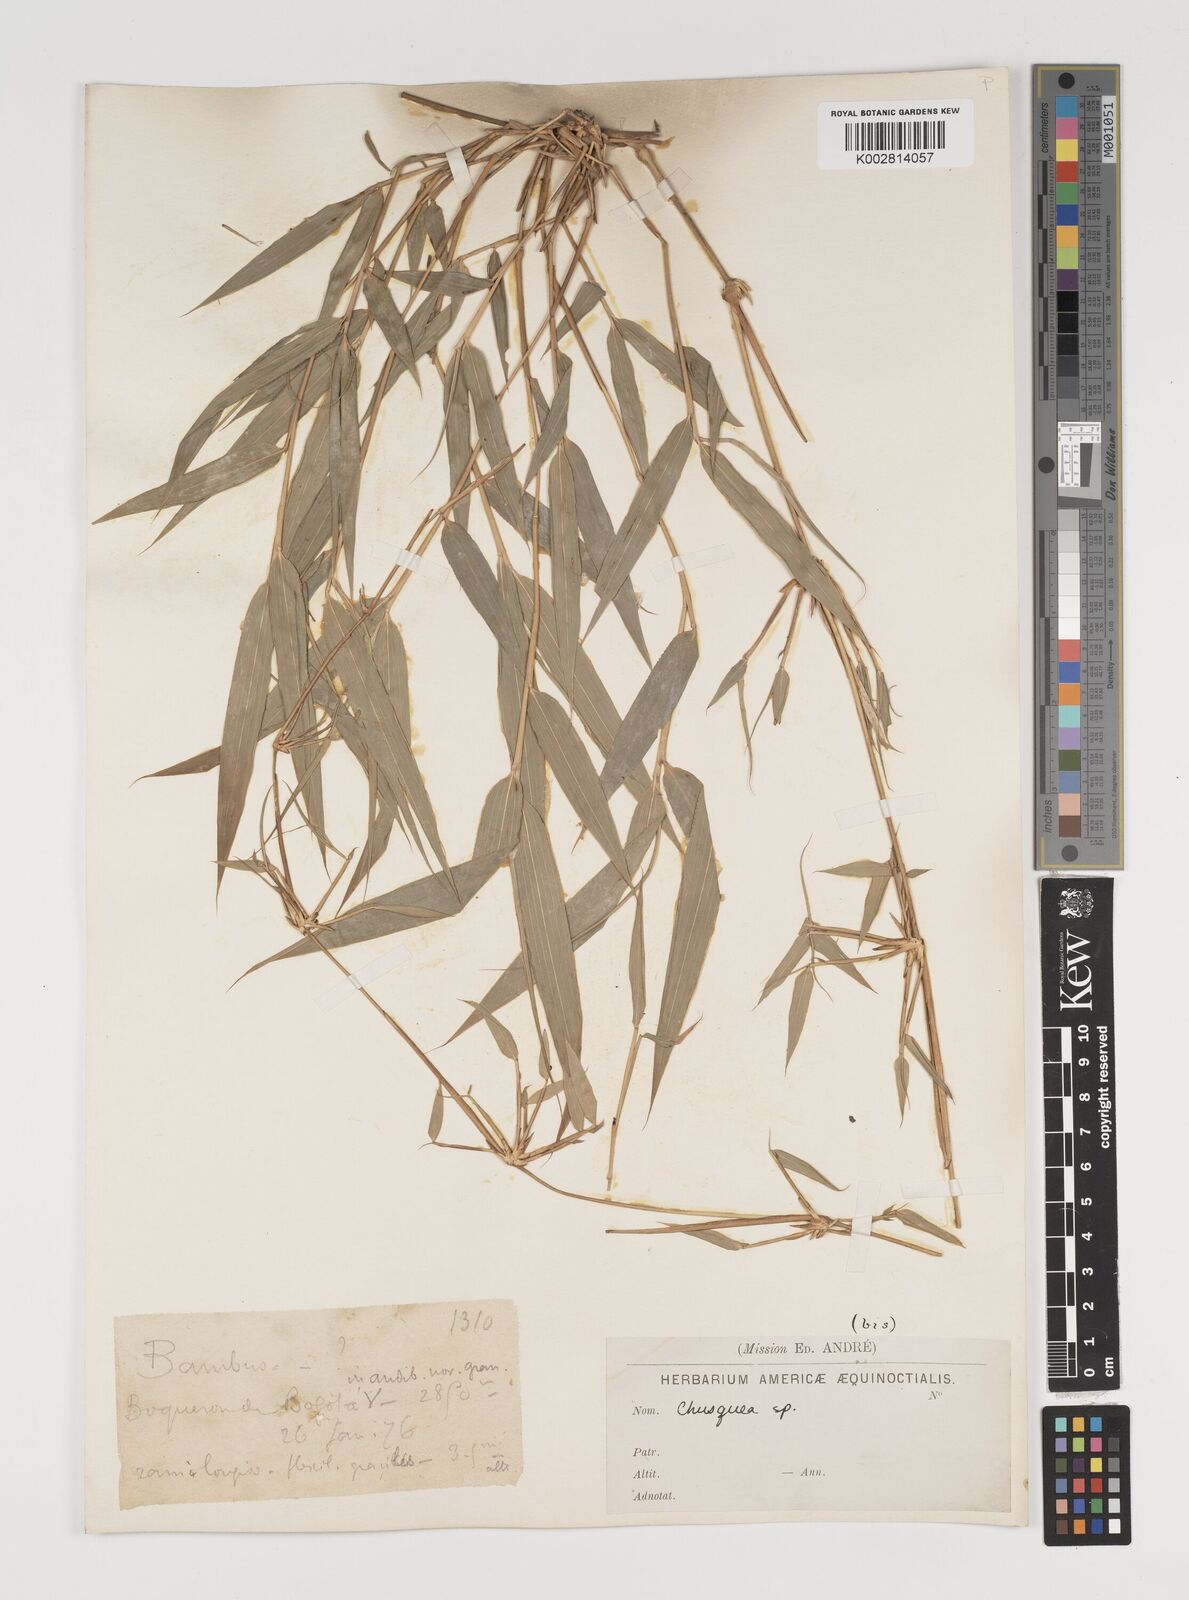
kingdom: Plantae
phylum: Tracheophyta
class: Liliopsida
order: Poales
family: Poaceae
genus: Chusquea
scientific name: Chusquea
